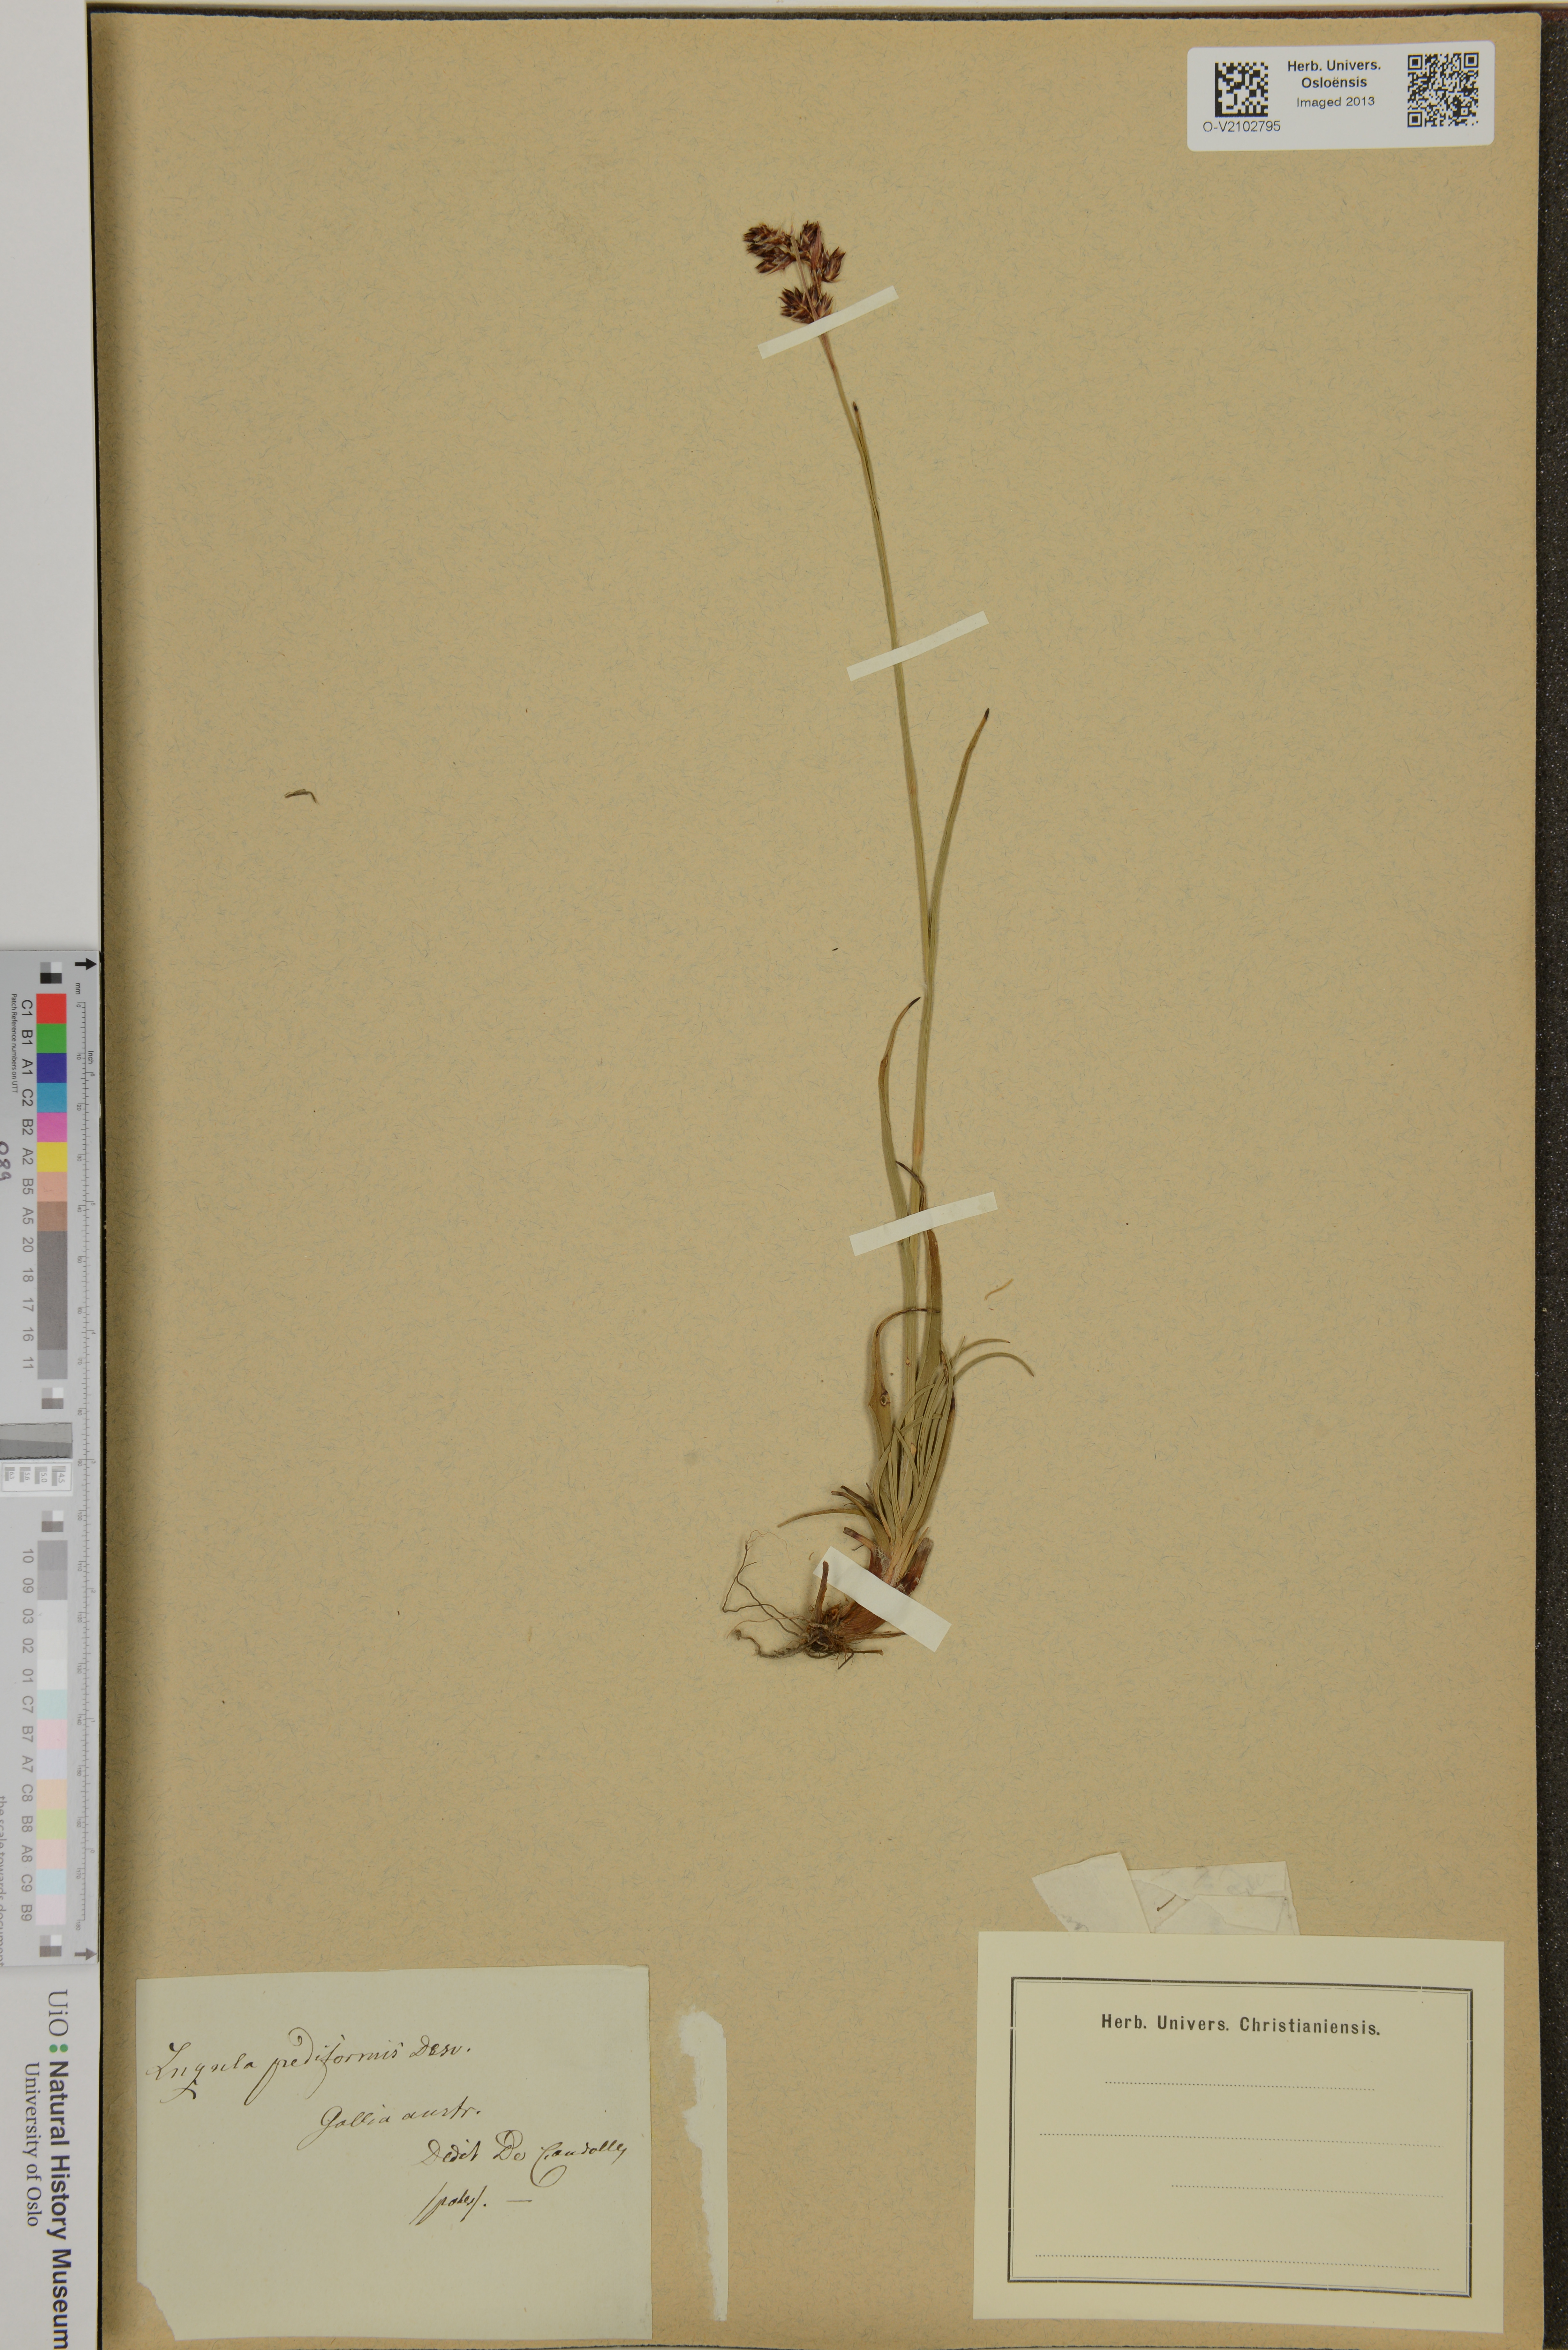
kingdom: Plantae
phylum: Tracheophyta
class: Liliopsida
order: Poales
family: Juncaceae
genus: Luzula
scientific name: Luzula pediformis
